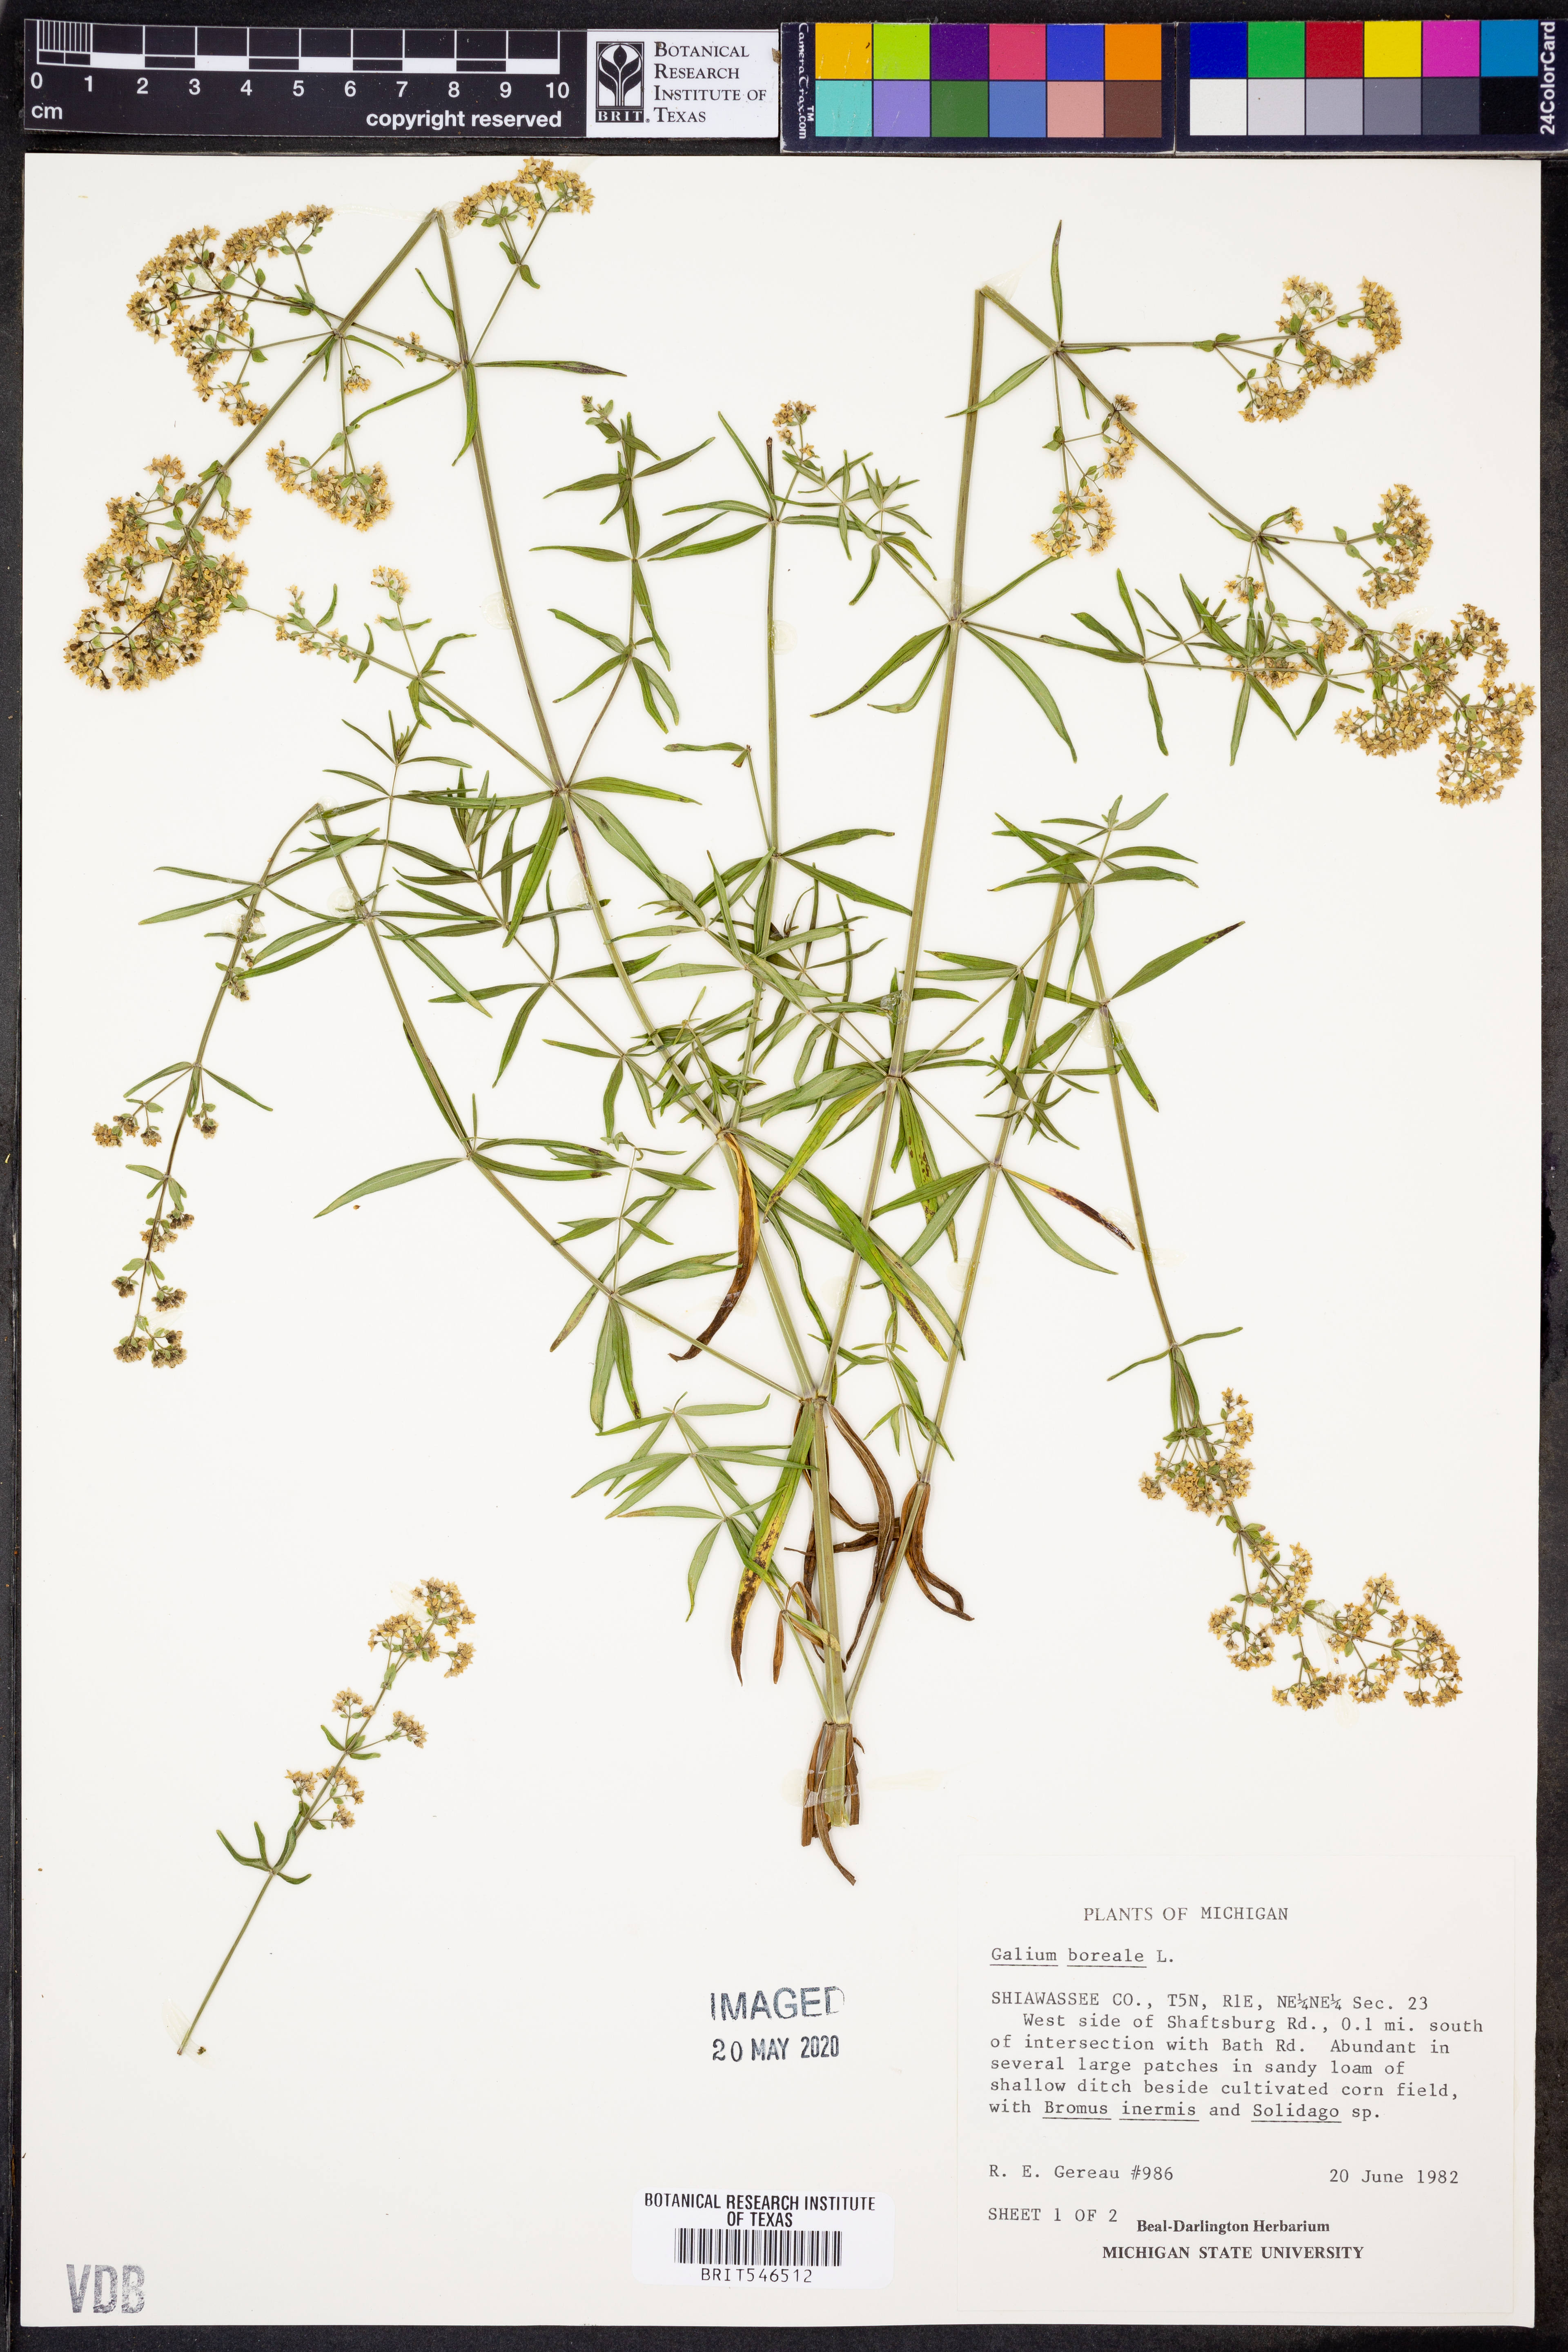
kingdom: Plantae
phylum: Tracheophyta
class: Magnoliopsida
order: Gentianales
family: Rubiaceae
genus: Galium
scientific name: Galium boreale
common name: Northern bedstraw
